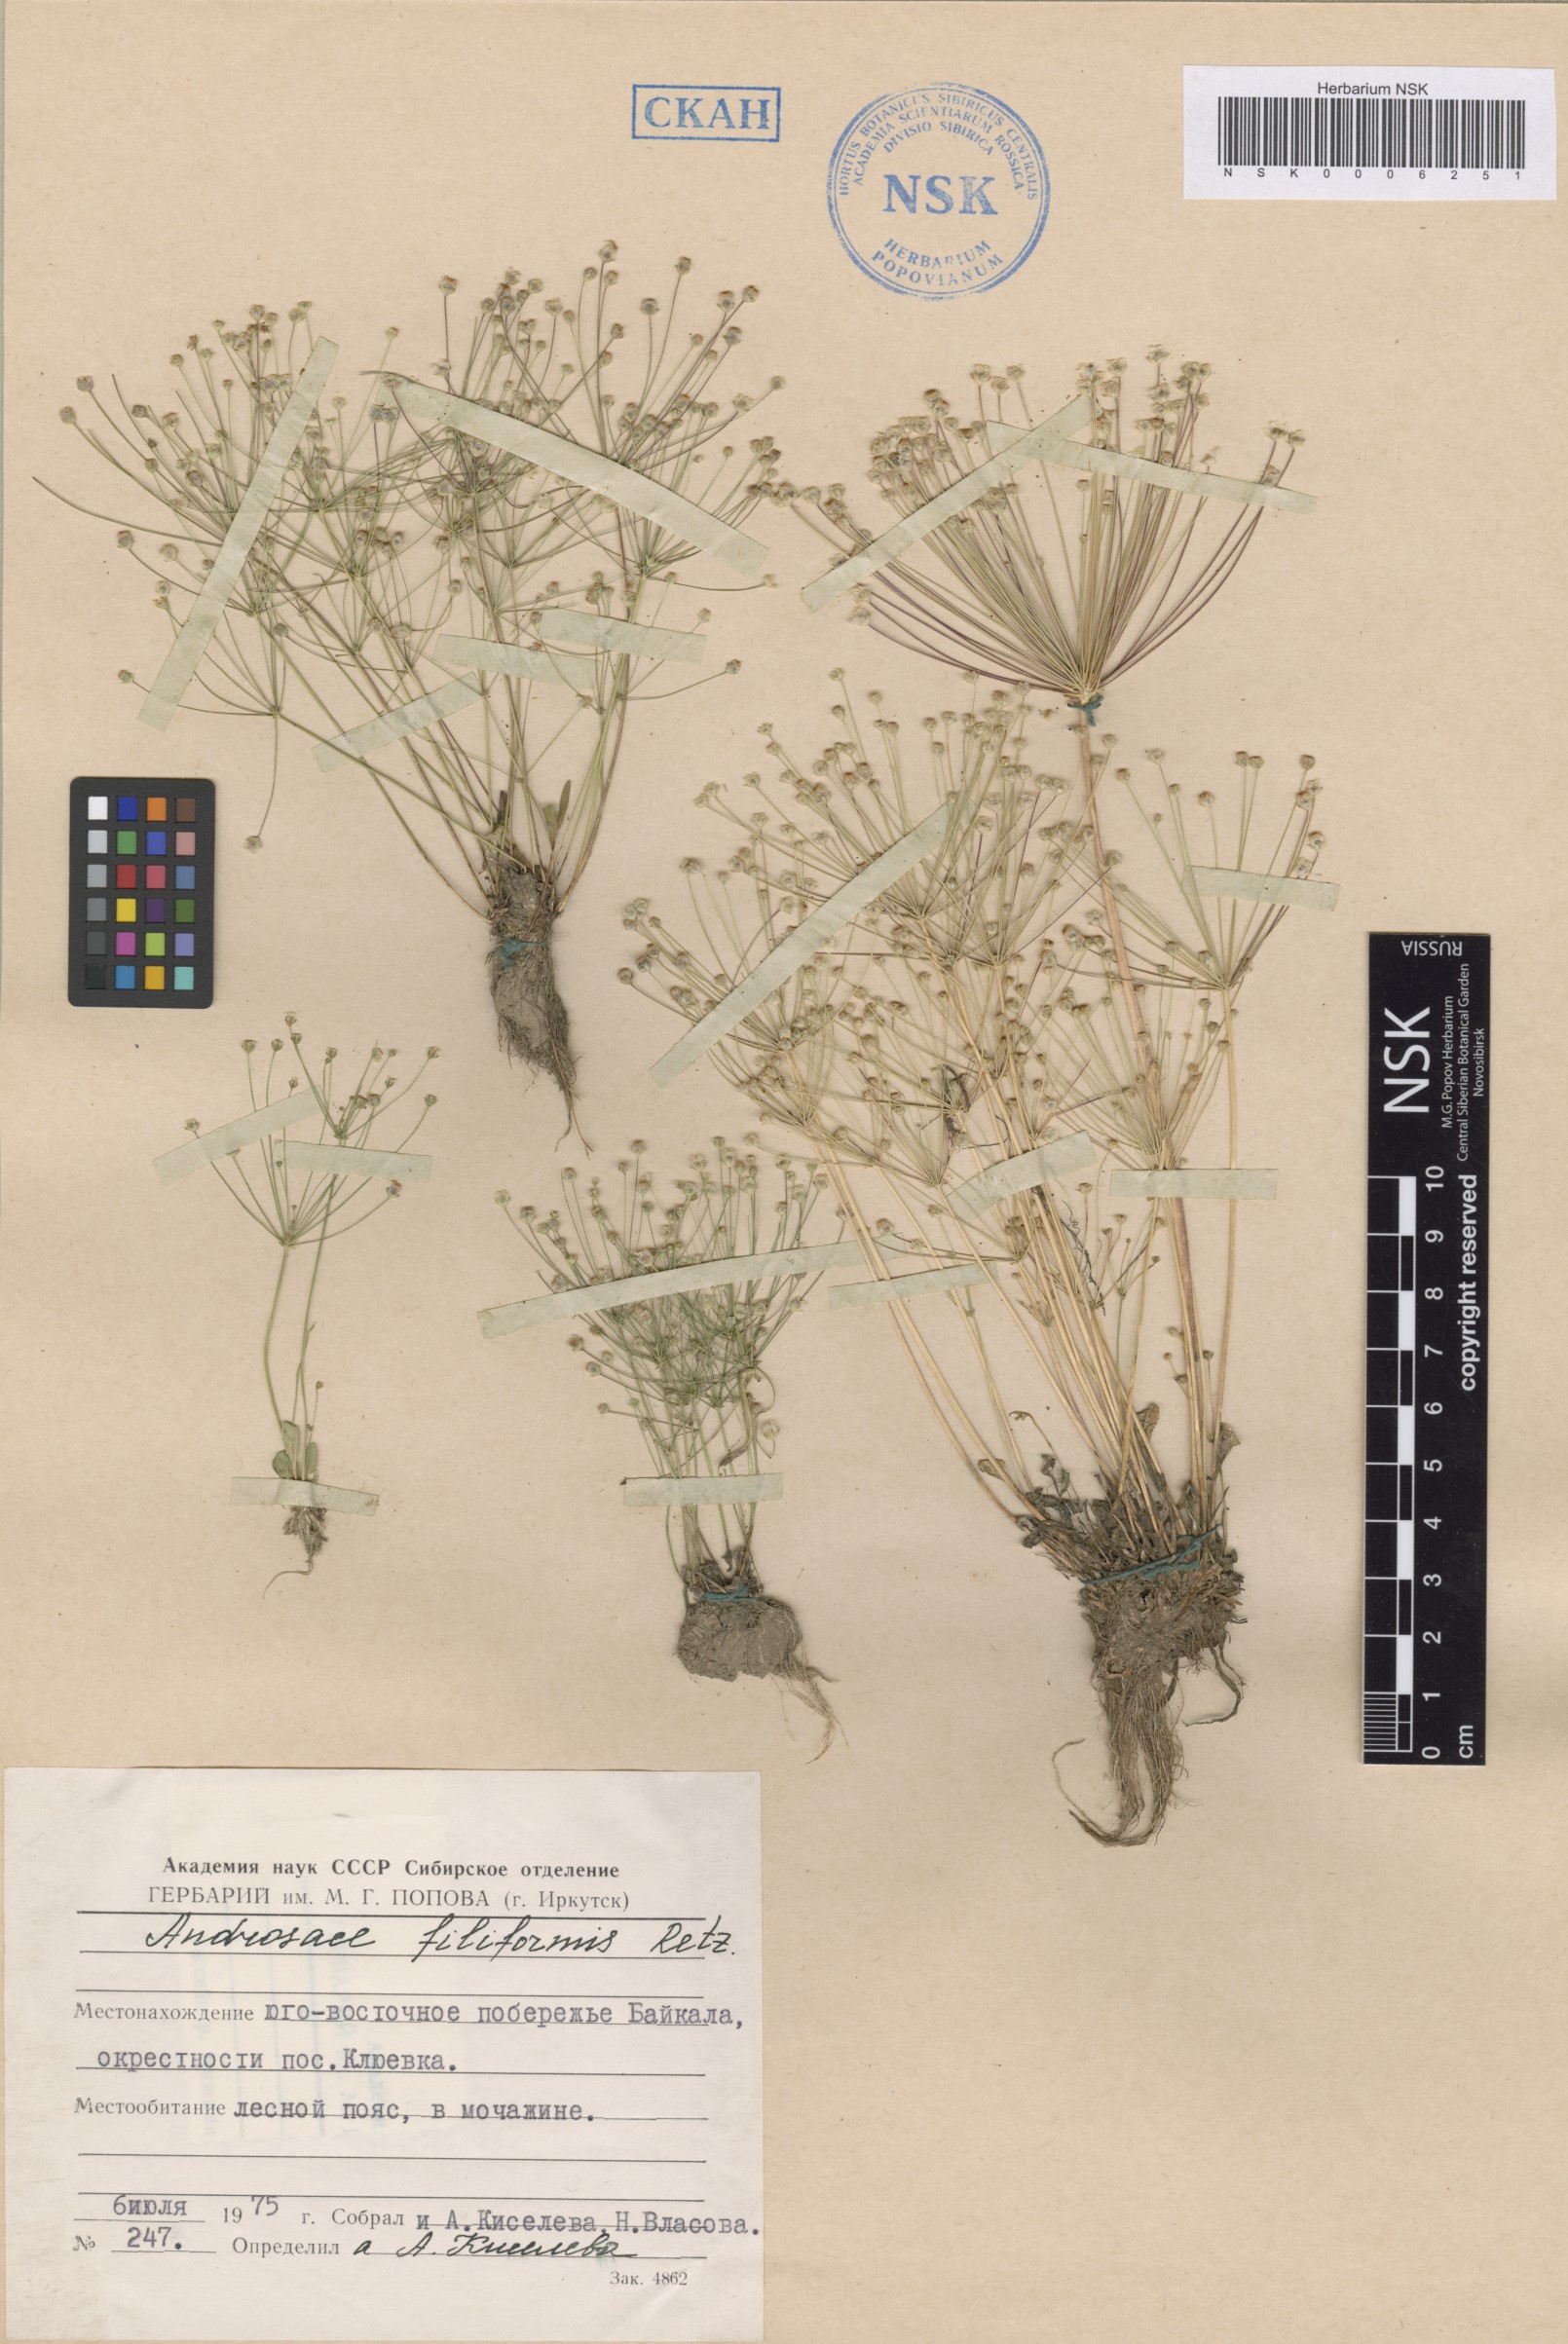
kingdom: Plantae
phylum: Tracheophyta
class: Magnoliopsida
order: Ericales
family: Primulaceae
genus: Androsace
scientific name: Androsace filiformis
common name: Filiform rock jasmine
